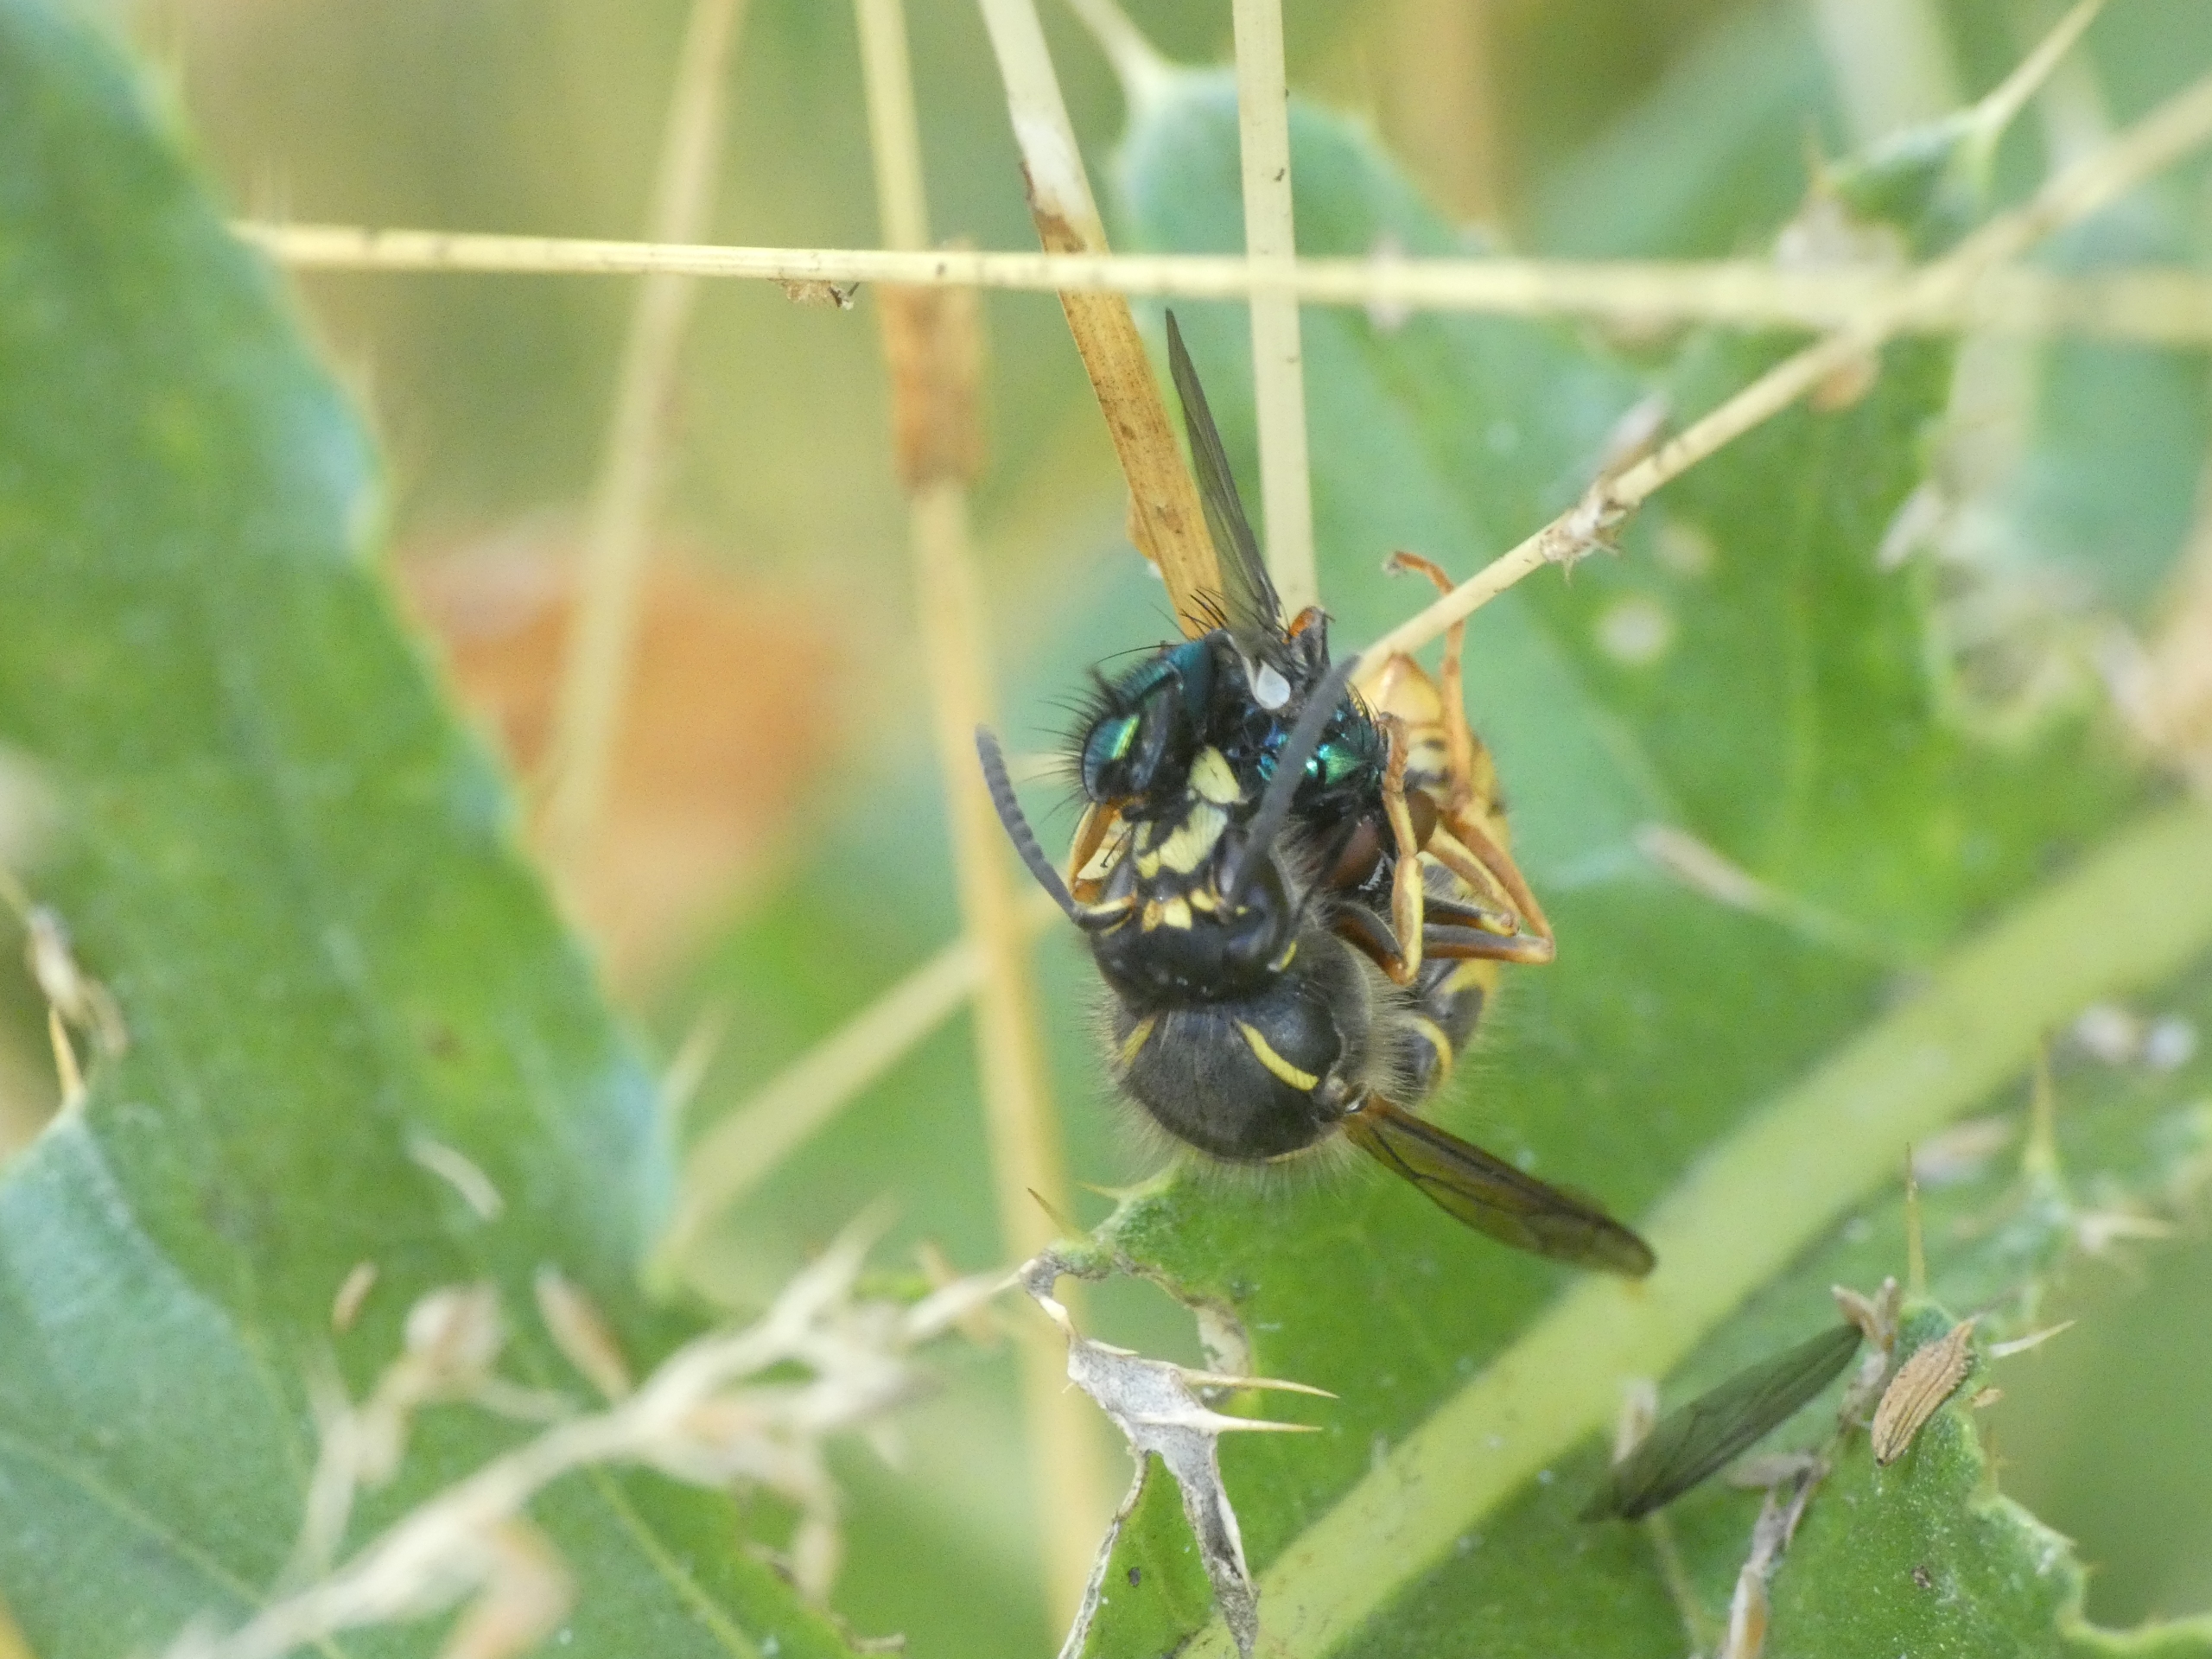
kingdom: Animalia
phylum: Arthropoda
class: Insecta
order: Hymenoptera
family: Vespidae
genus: Dolichovespula
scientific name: Dolichovespula saxonica
